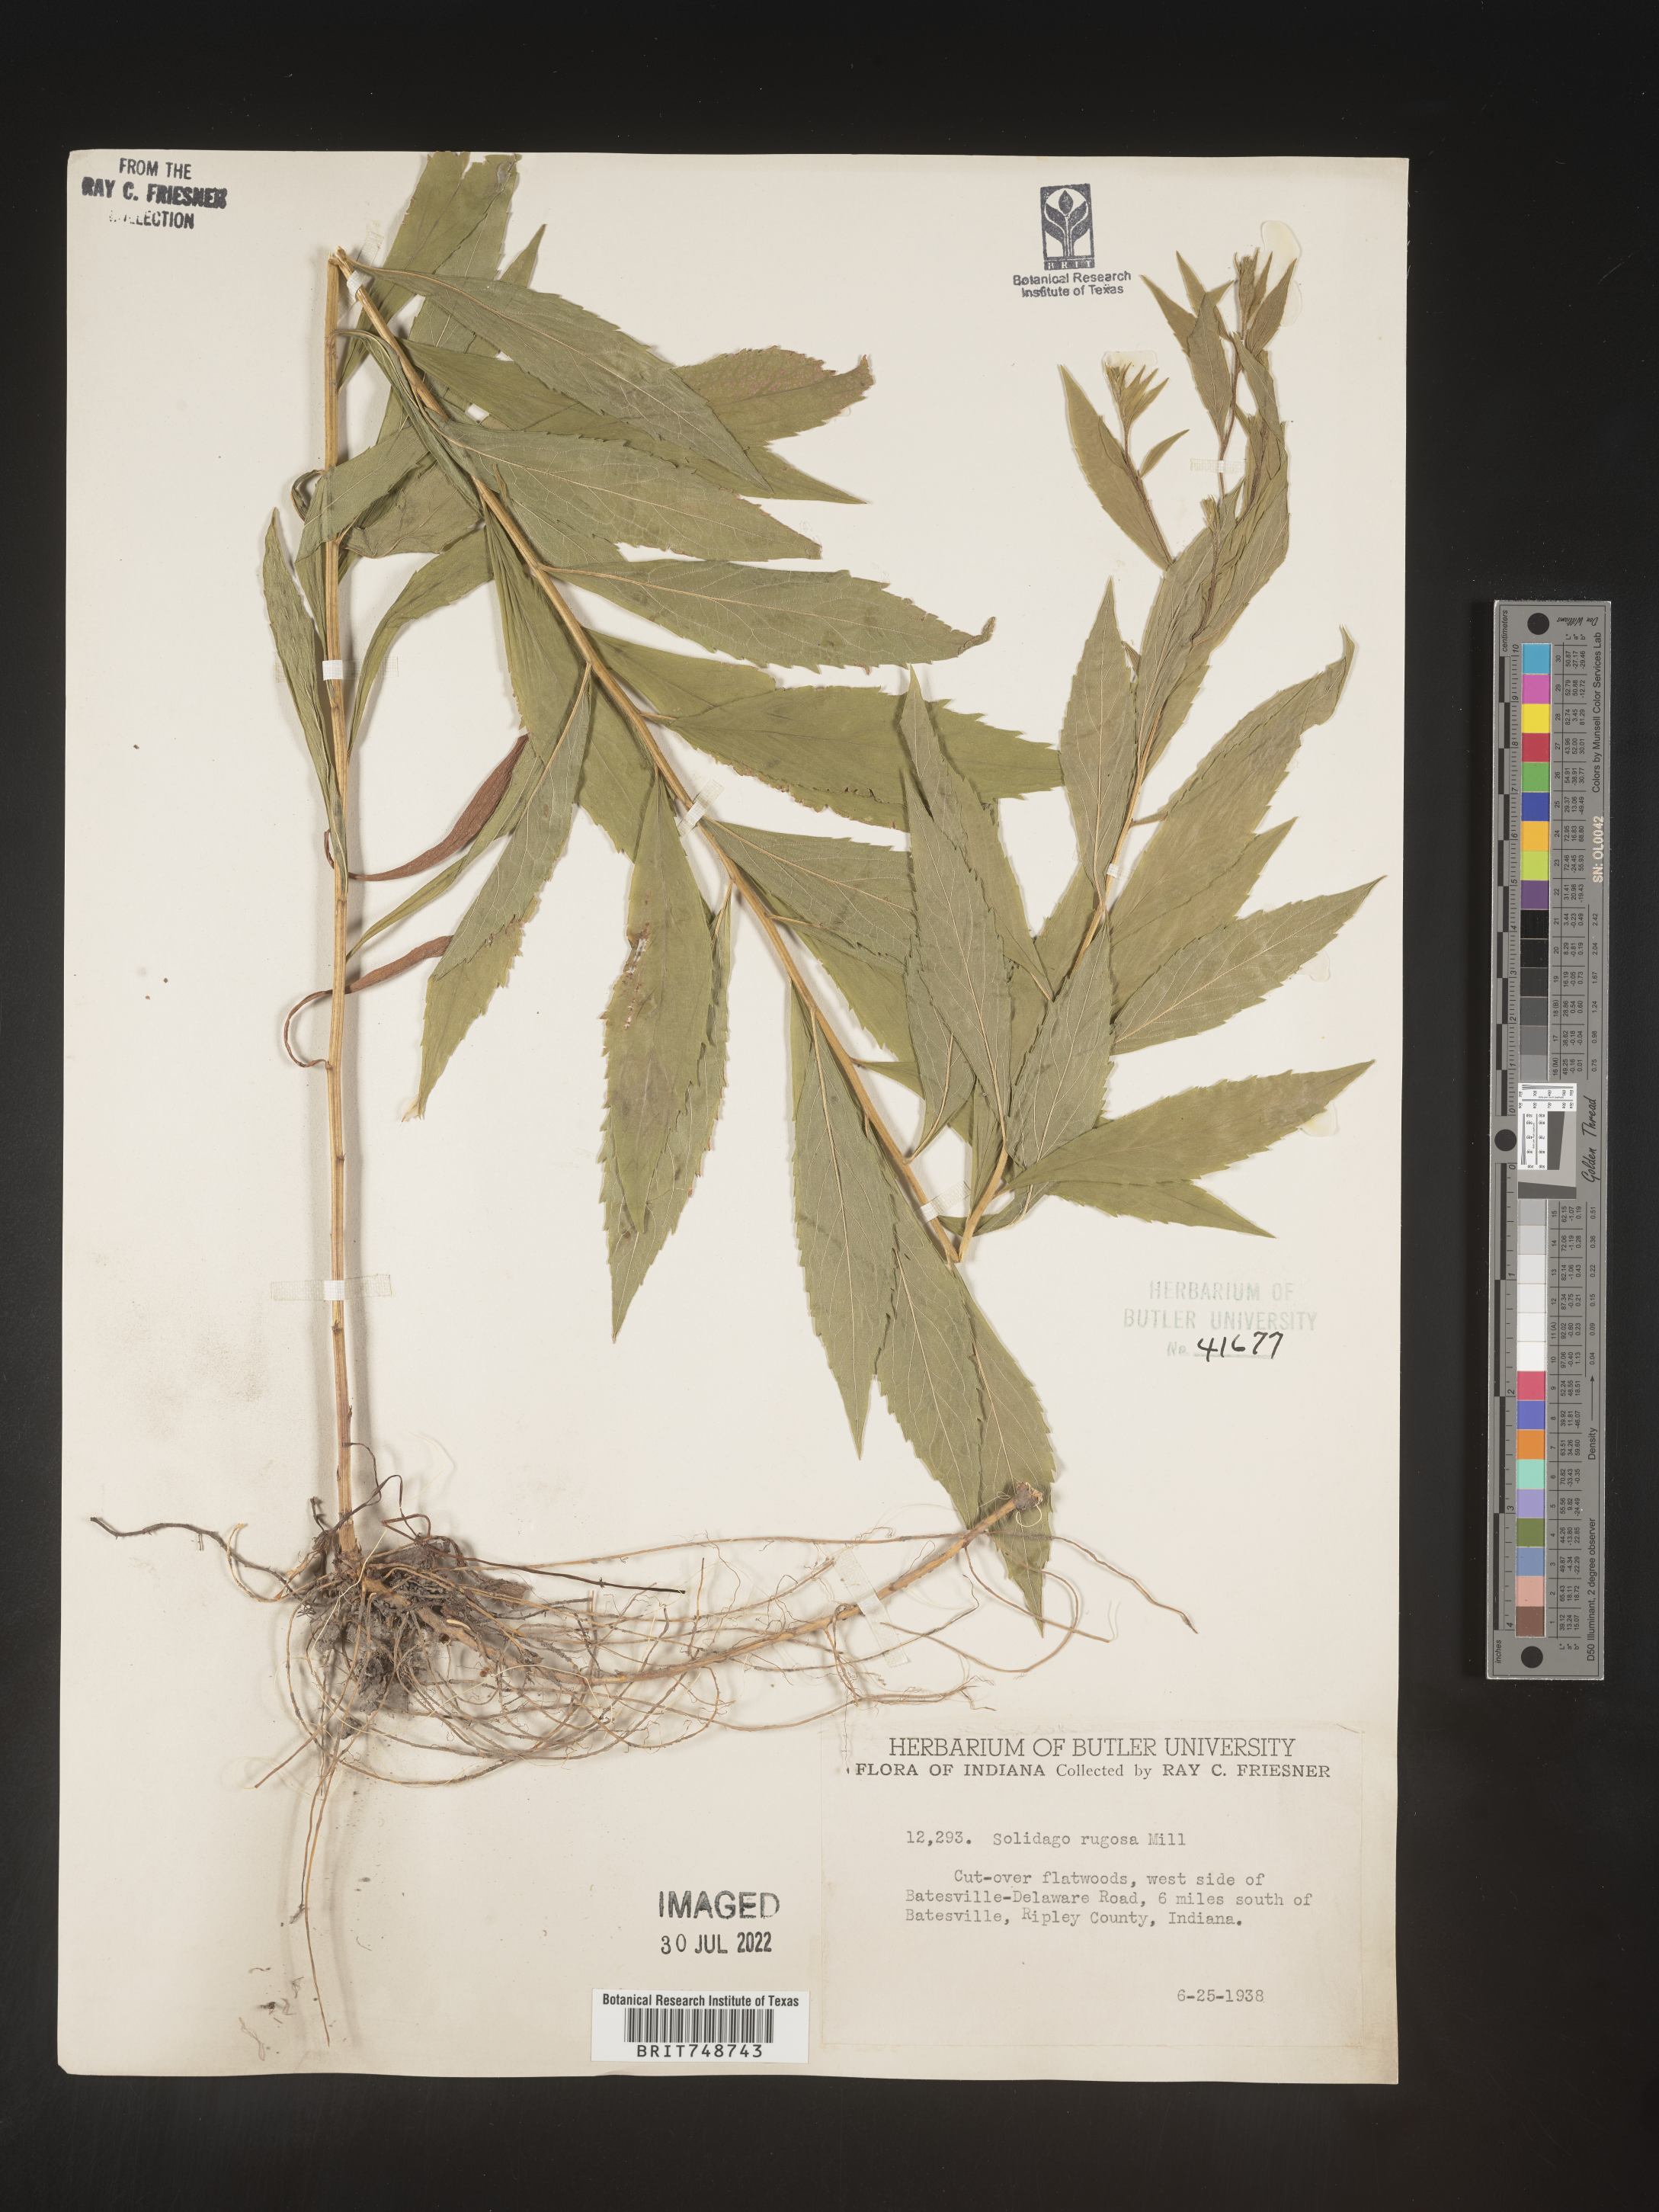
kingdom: Plantae
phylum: Tracheophyta
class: Magnoliopsida
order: Asterales
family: Asteraceae
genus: Solidago
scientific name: Solidago rugosa
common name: Rough-stemmed goldenrod
